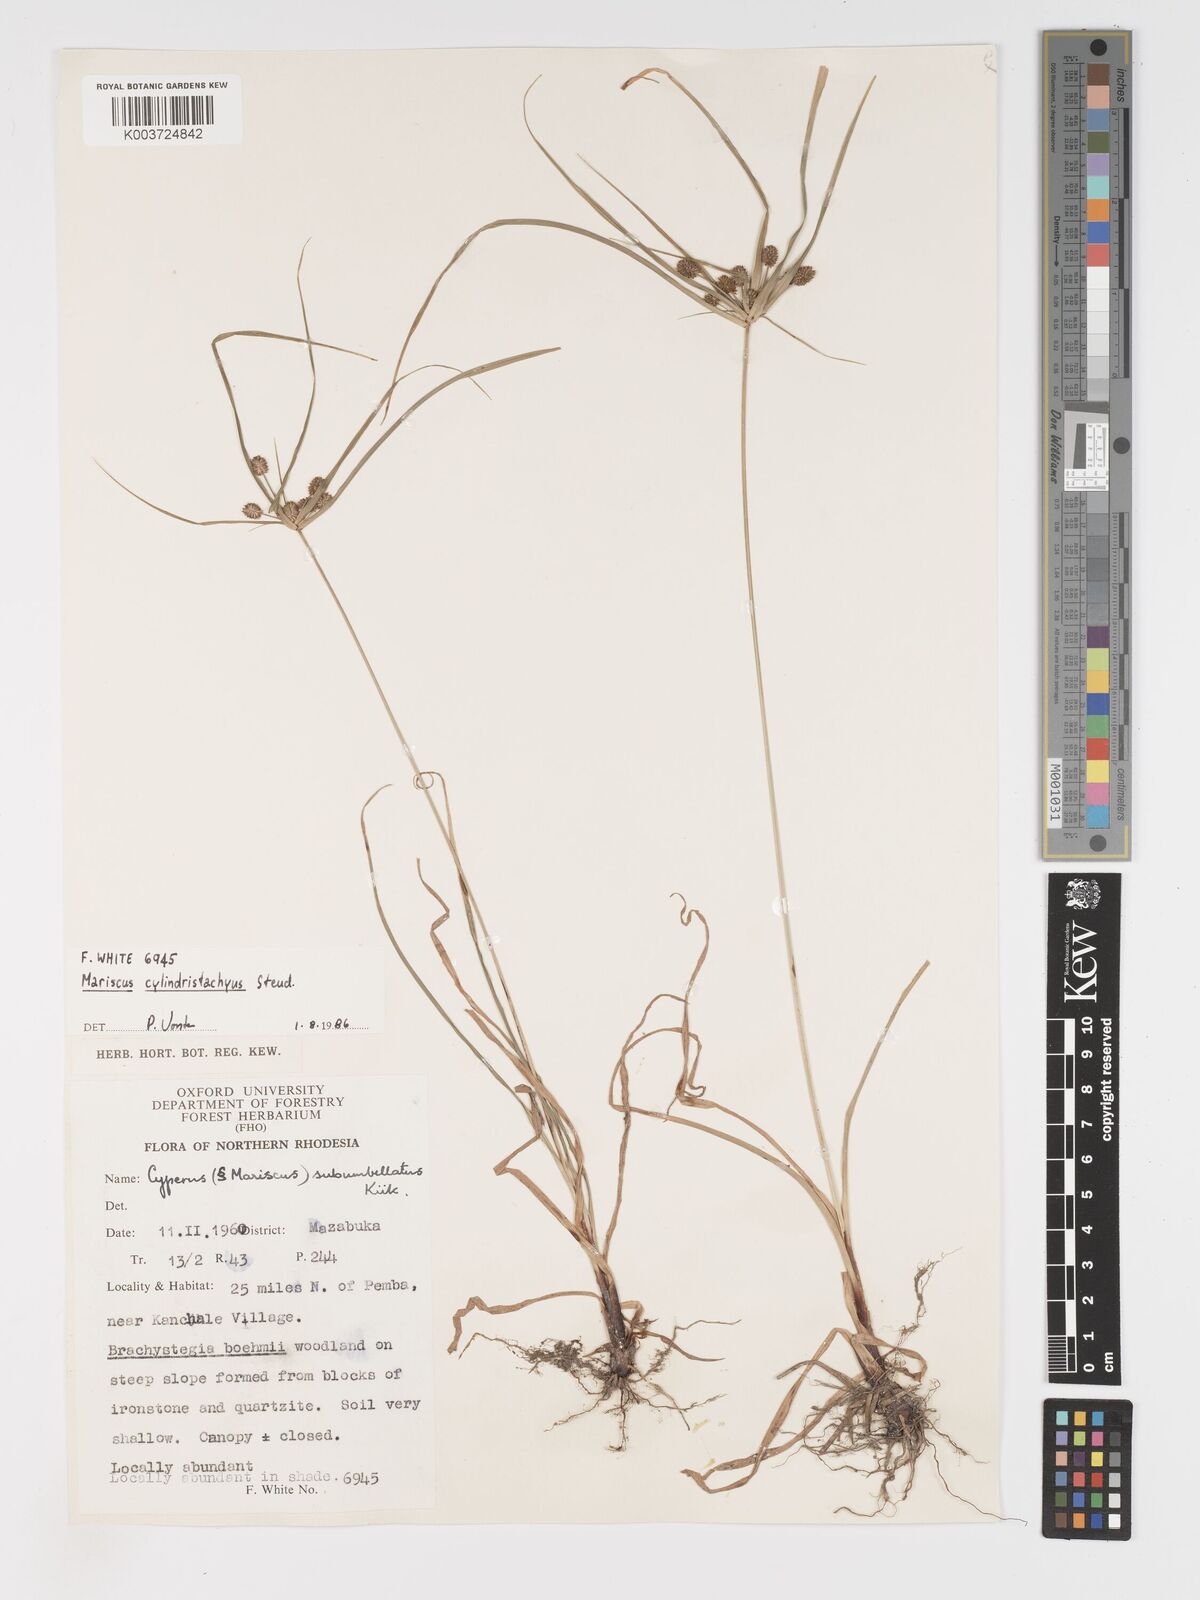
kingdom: Plantae
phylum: Tracheophyta
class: Liliopsida
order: Poales
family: Cyperaceae
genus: Cyperus
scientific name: Cyperus cyperoides
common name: Pacific island flat sedge
